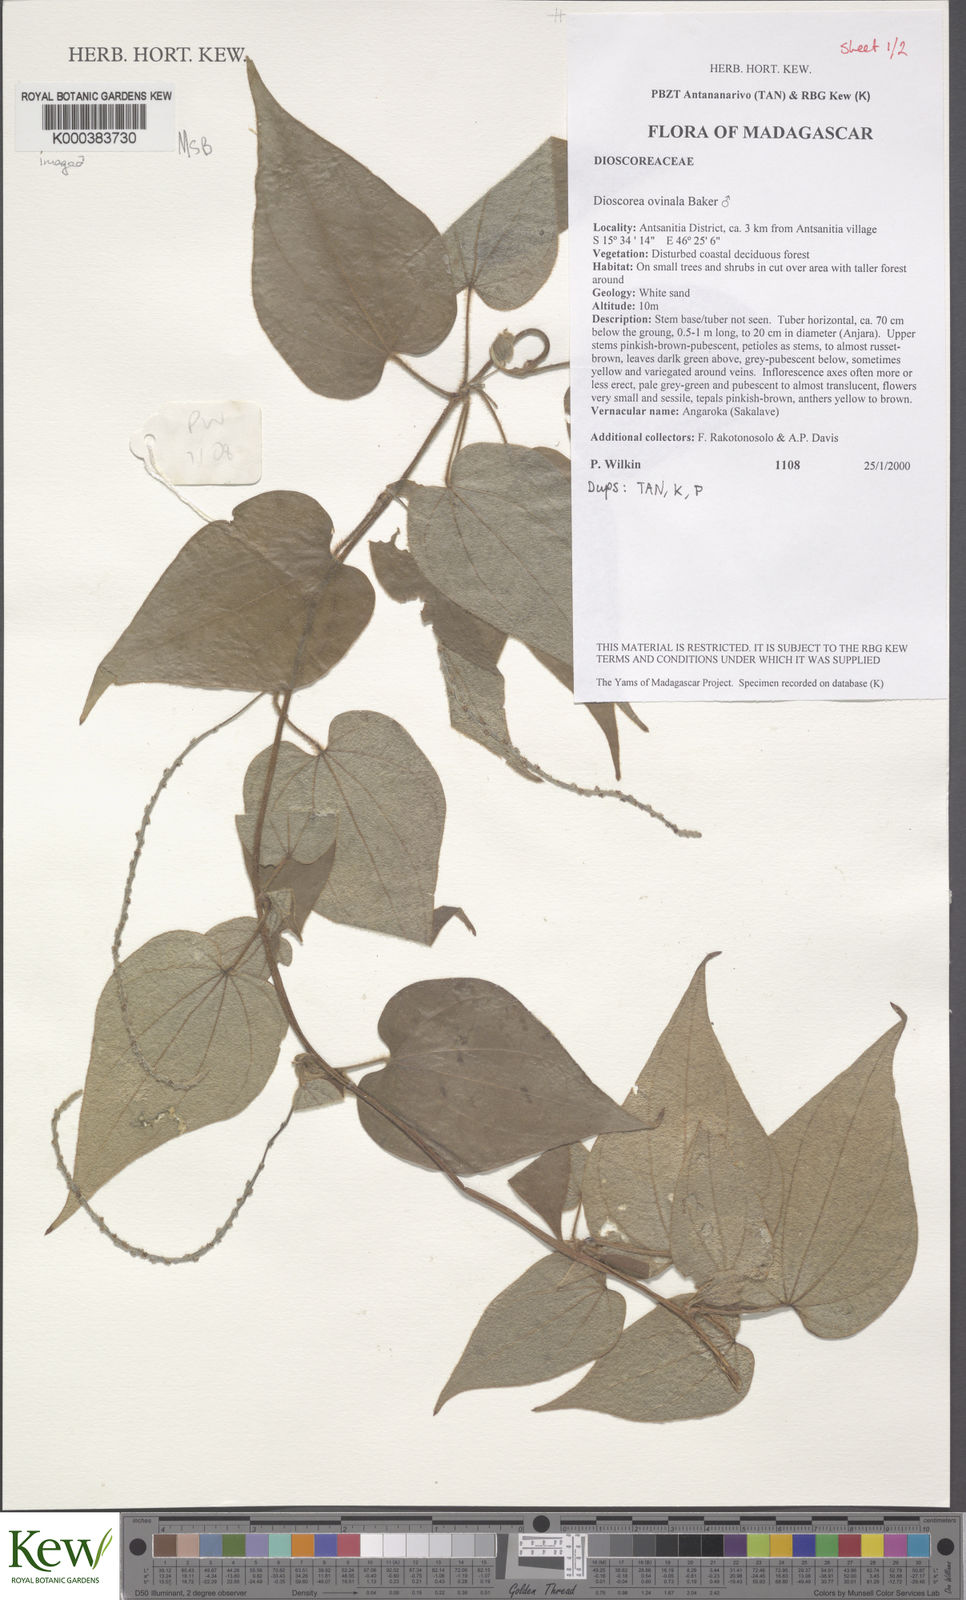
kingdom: Plantae
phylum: Tracheophyta
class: Liliopsida
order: Dioscoreales
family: Dioscoreaceae
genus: Dioscorea
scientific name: Dioscorea ovinala
